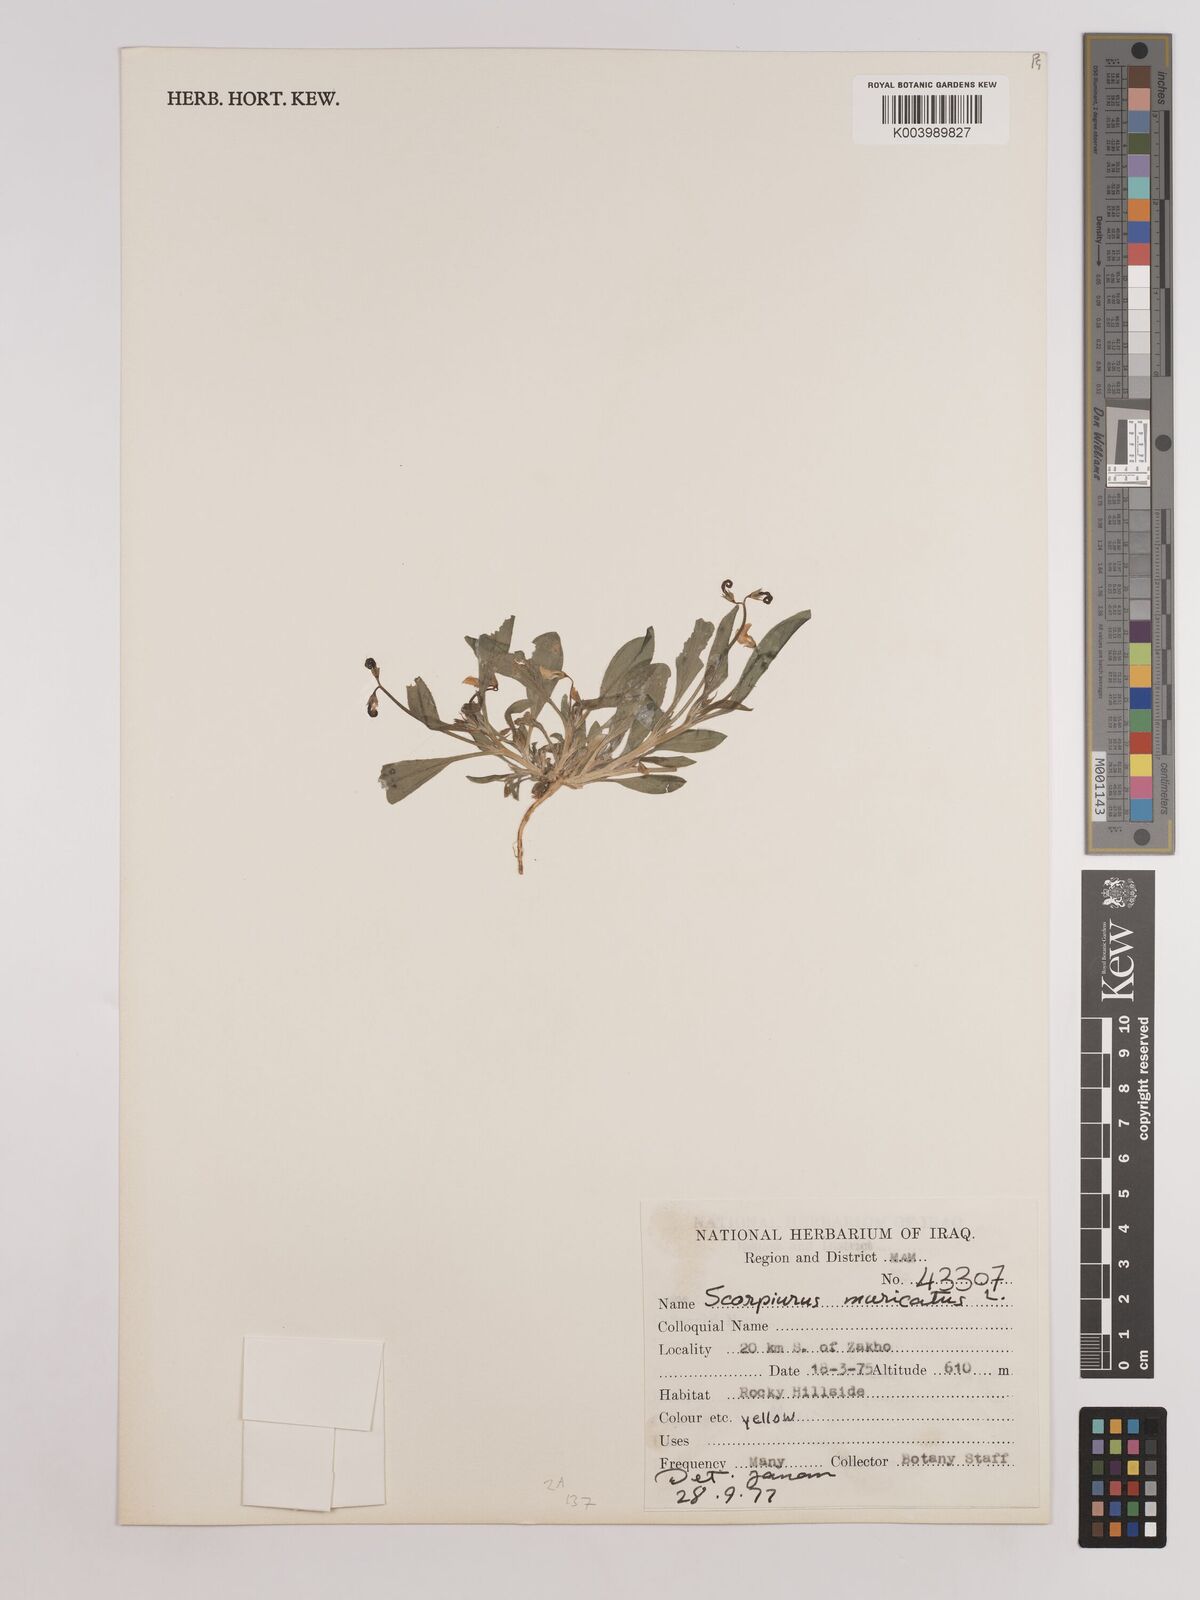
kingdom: Plantae
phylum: Tracheophyta
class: Magnoliopsida
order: Fabales
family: Fabaceae
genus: Scorpiurus
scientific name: Scorpiurus muricatus
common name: Caterpillar-plant
